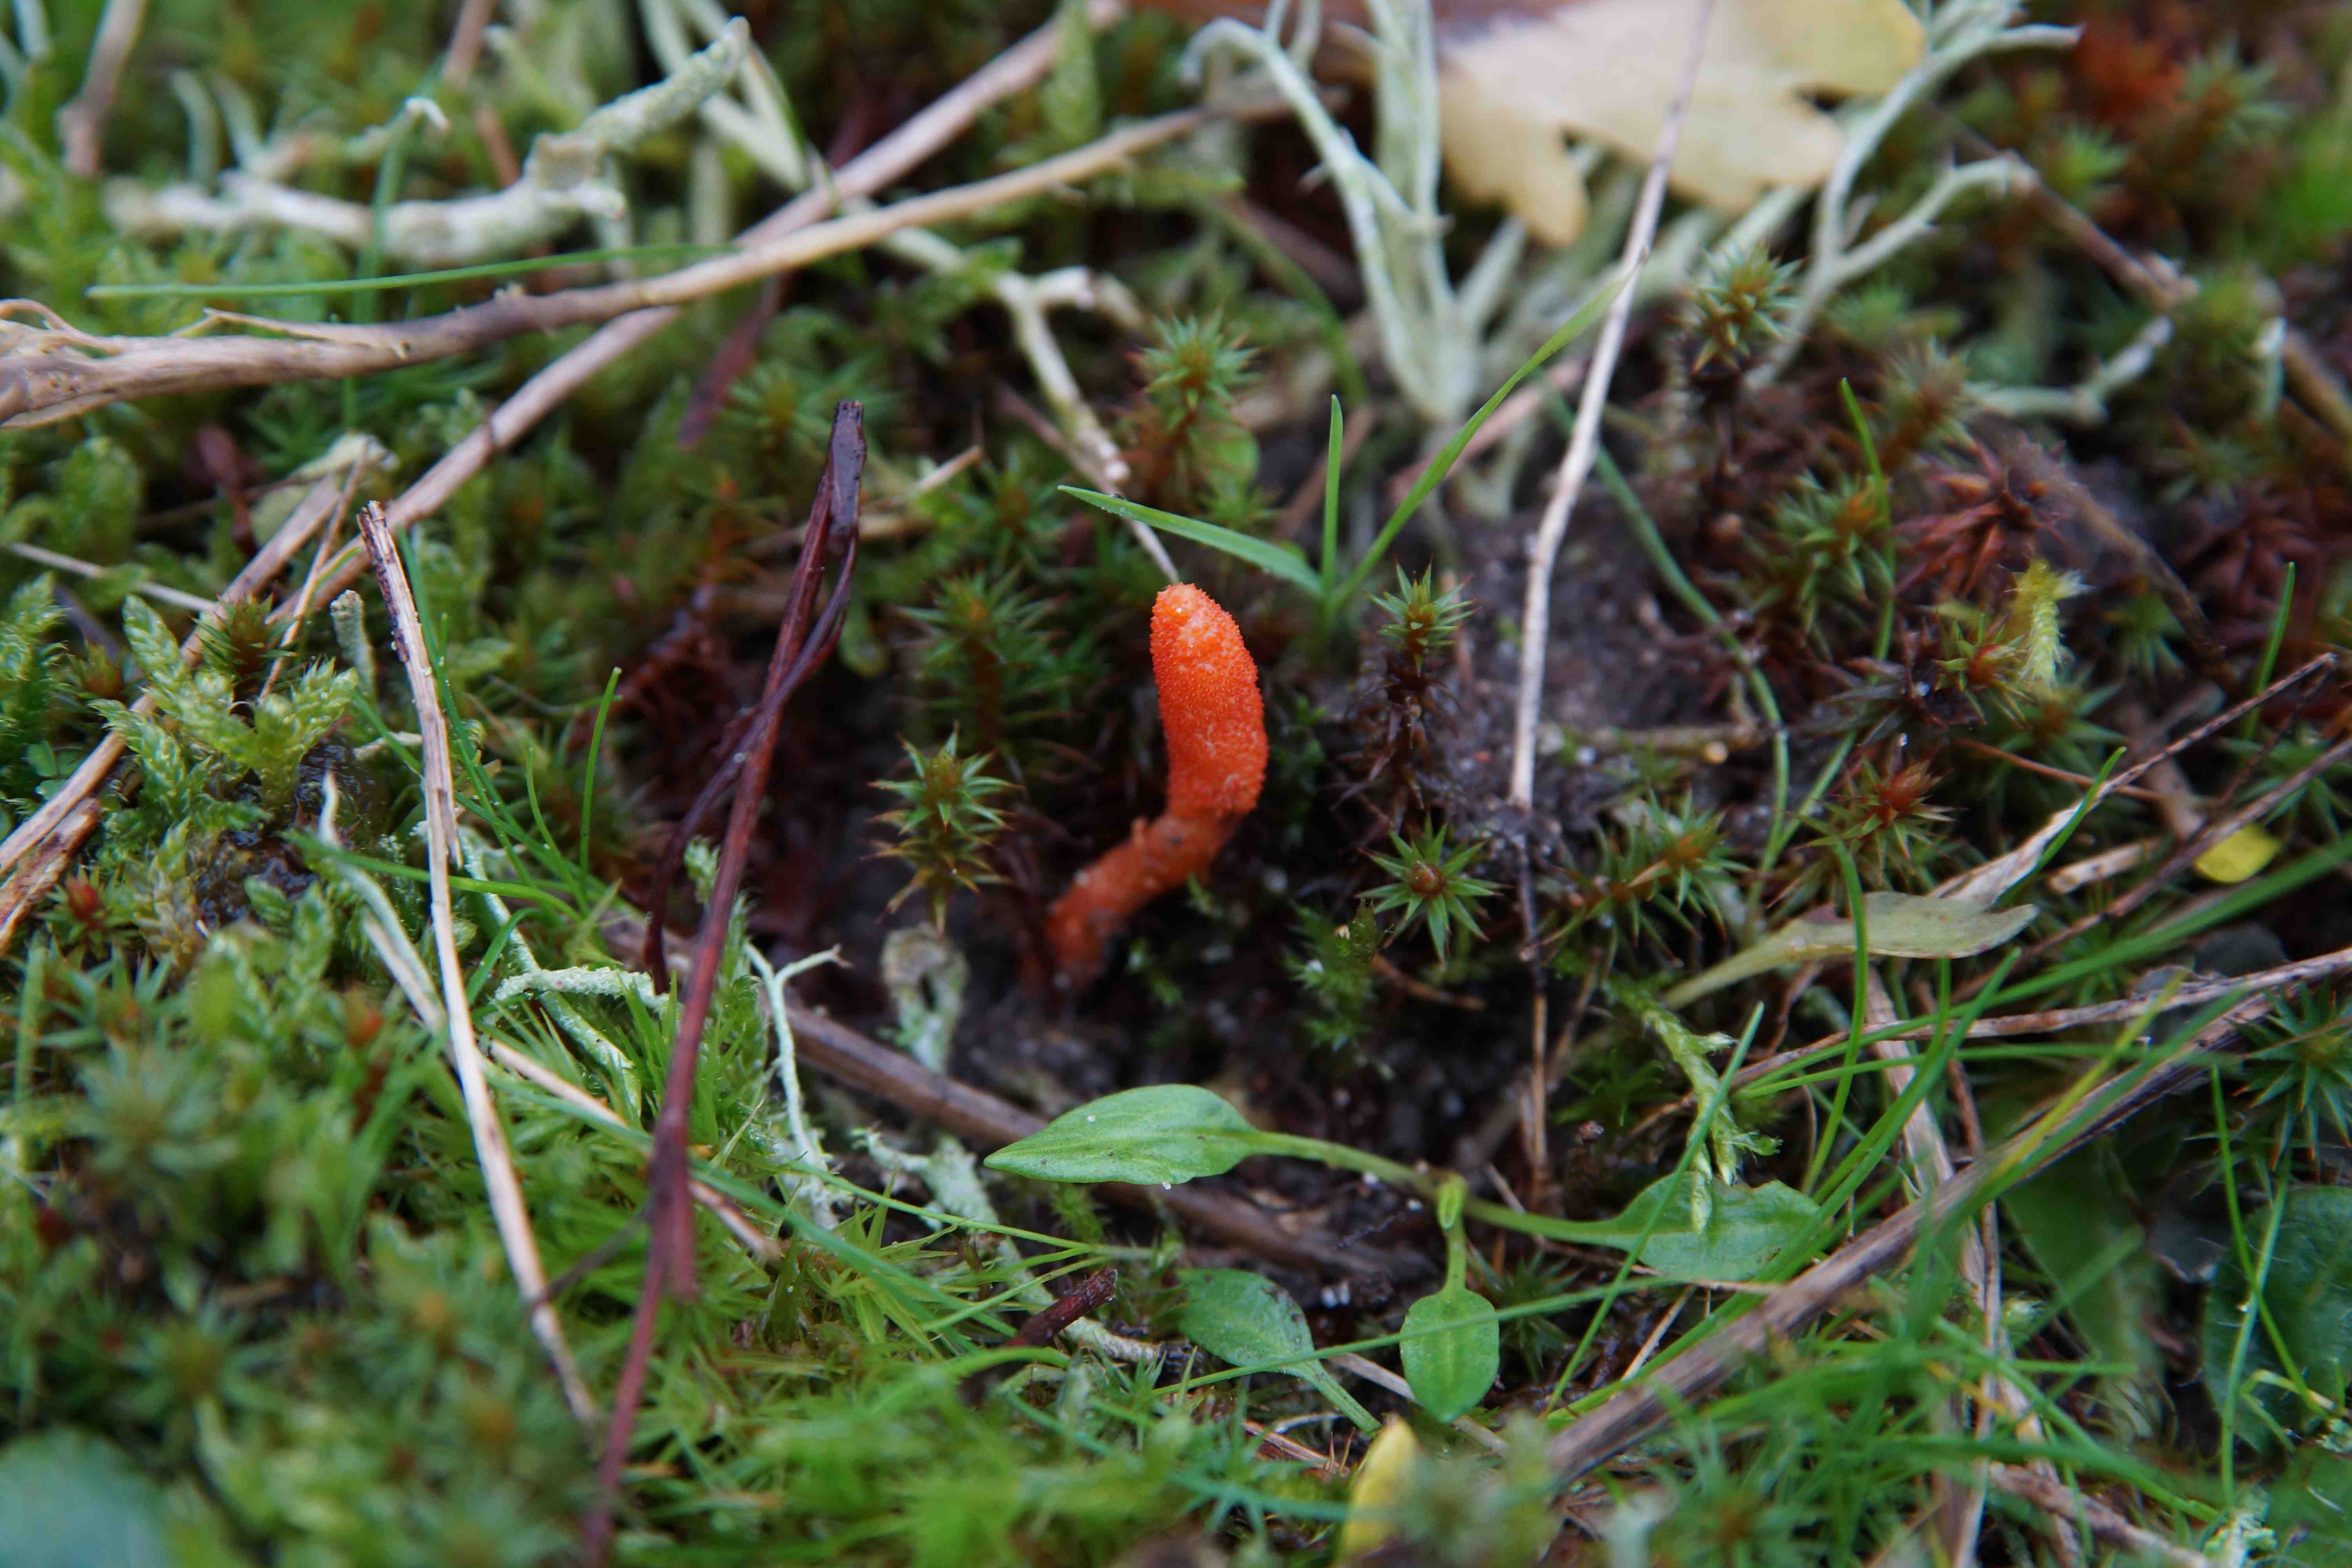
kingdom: Fungi
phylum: Ascomycota
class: Sordariomycetes
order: Hypocreales
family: Cordycipitaceae
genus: Cordyceps
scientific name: Cordyceps militaris
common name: puppe-snyltekølle
